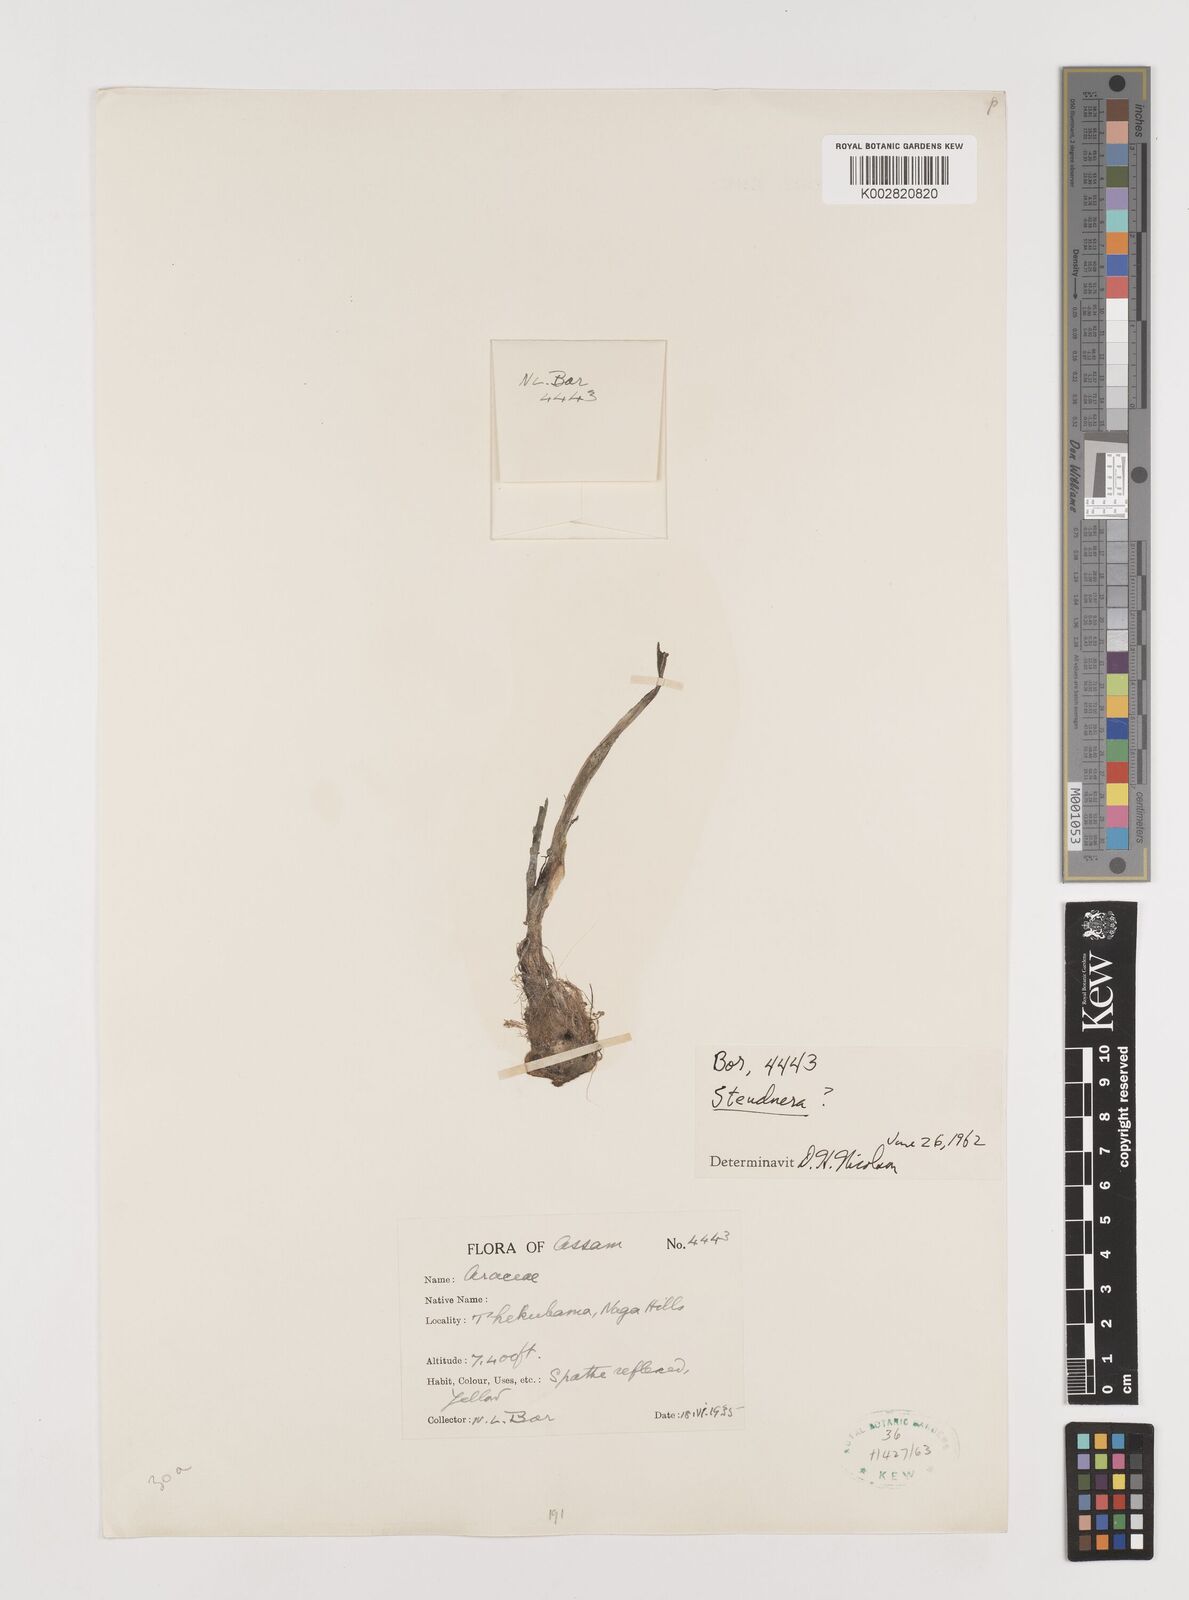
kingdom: Plantae
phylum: Tracheophyta
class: Liliopsida
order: Alismatales
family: Araceae
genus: Steudnera
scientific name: Steudnera
